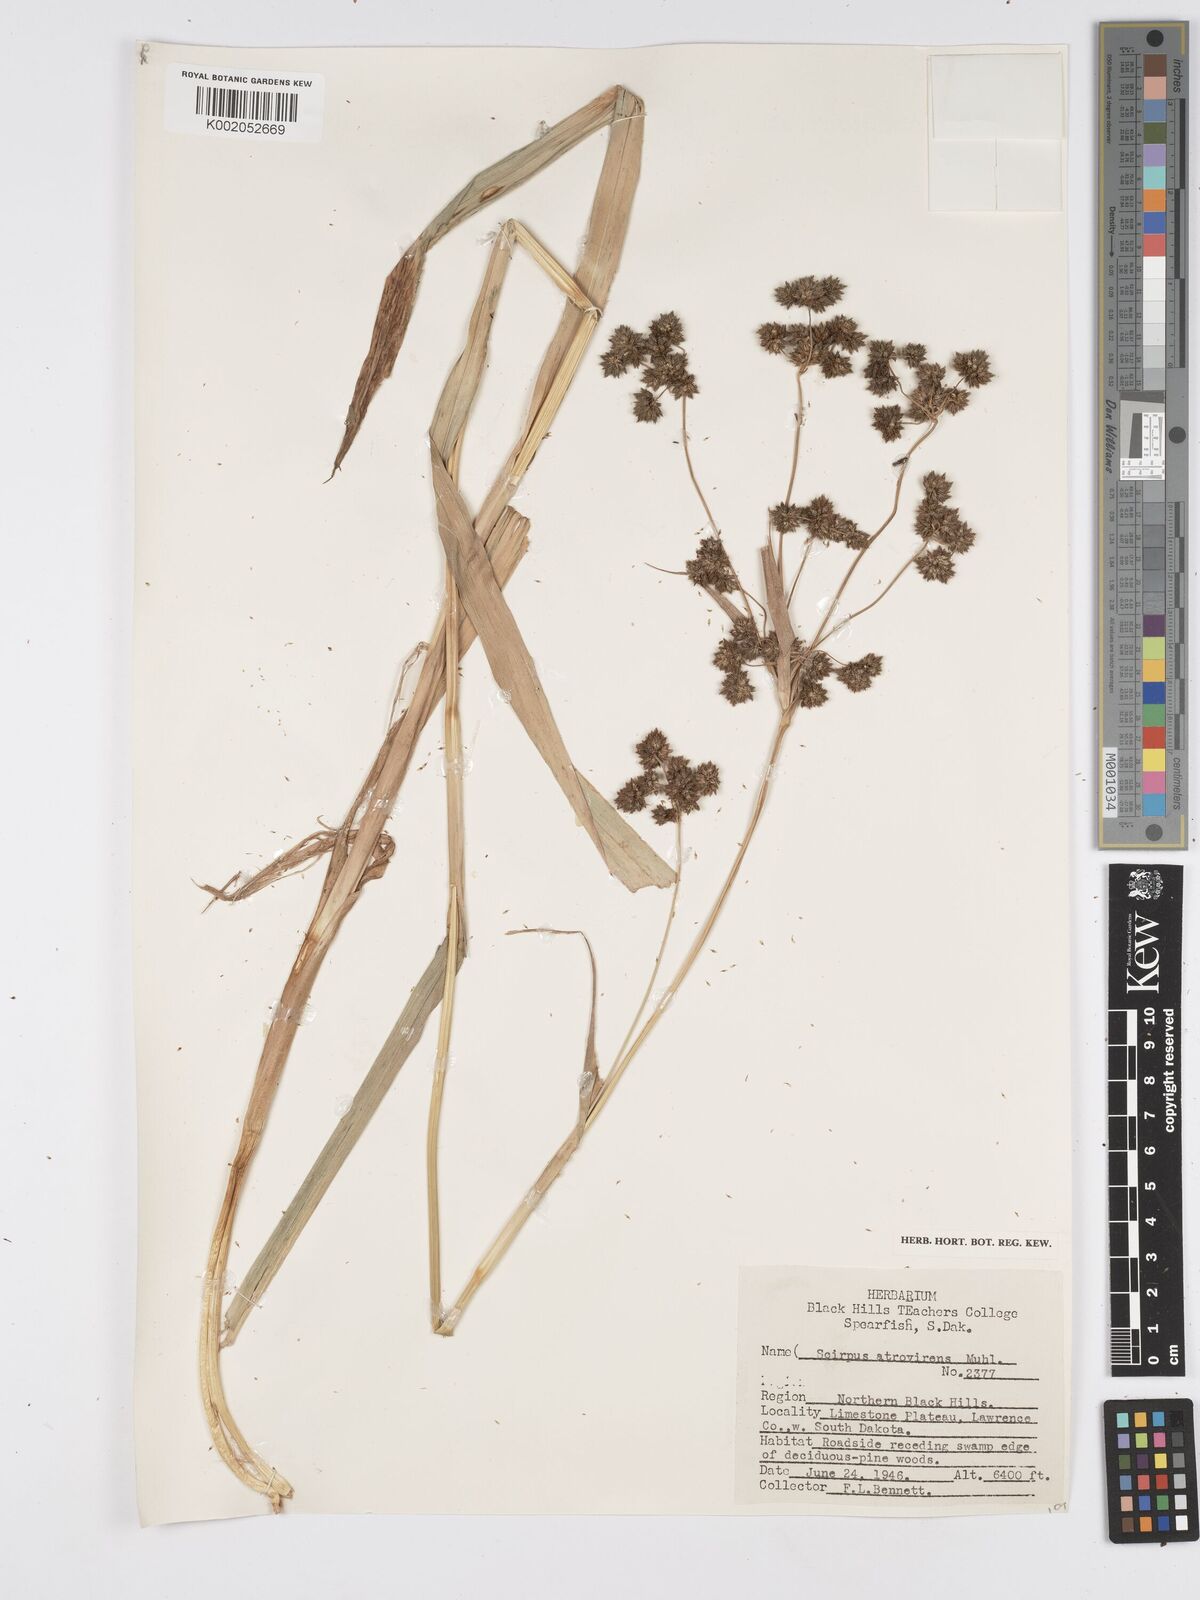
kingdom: Plantae
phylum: Tracheophyta
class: Liliopsida
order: Poales
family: Cyperaceae
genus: Scirpus
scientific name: Scirpus atrovirens
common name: Black bulrush
